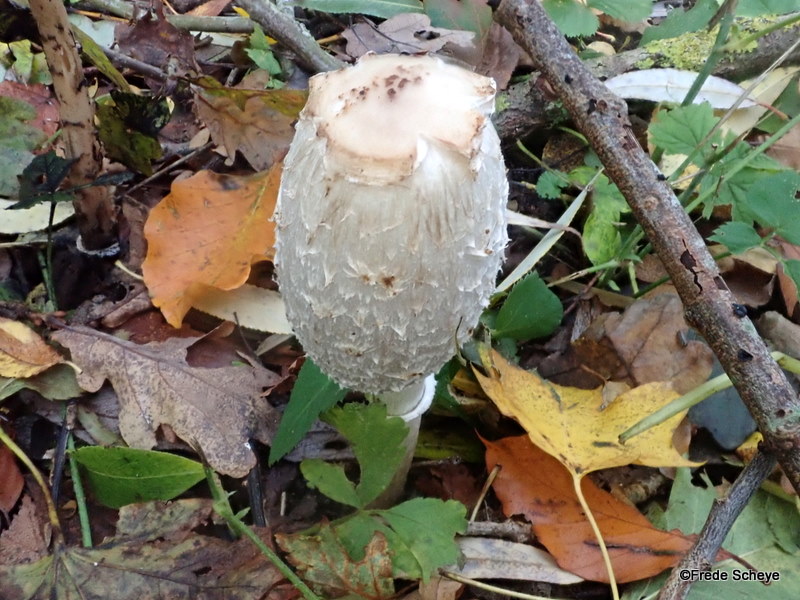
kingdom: Fungi
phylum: Basidiomycota
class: Agaricomycetes
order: Agaricales
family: Agaricaceae
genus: Coprinus
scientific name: Coprinus comatus
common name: stor parykhat
